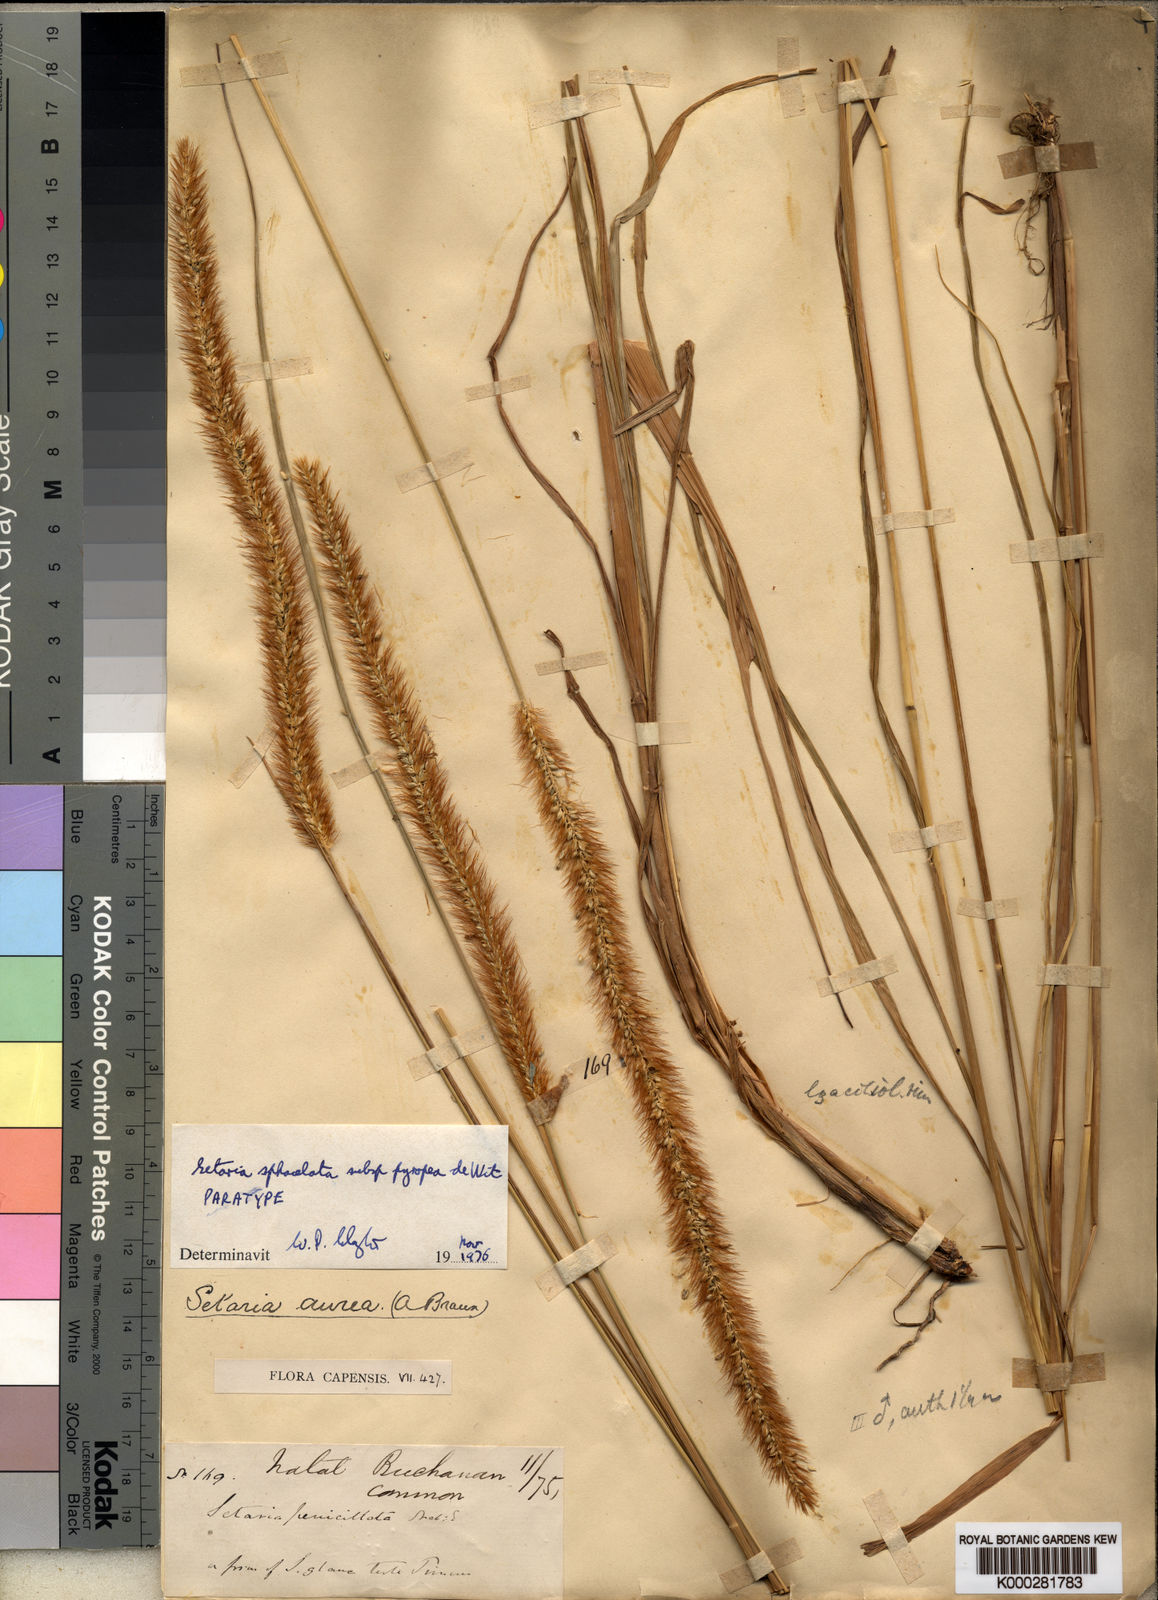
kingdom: Plantae
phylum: Tracheophyta
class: Liliopsida
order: Poales
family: Poaceae
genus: Setaria
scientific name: Setaria sphacelata
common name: African bristlegrass
